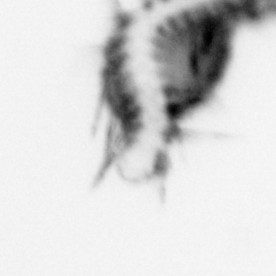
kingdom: Animalia
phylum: Annelida
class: Polychaeta
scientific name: Polychaeta
